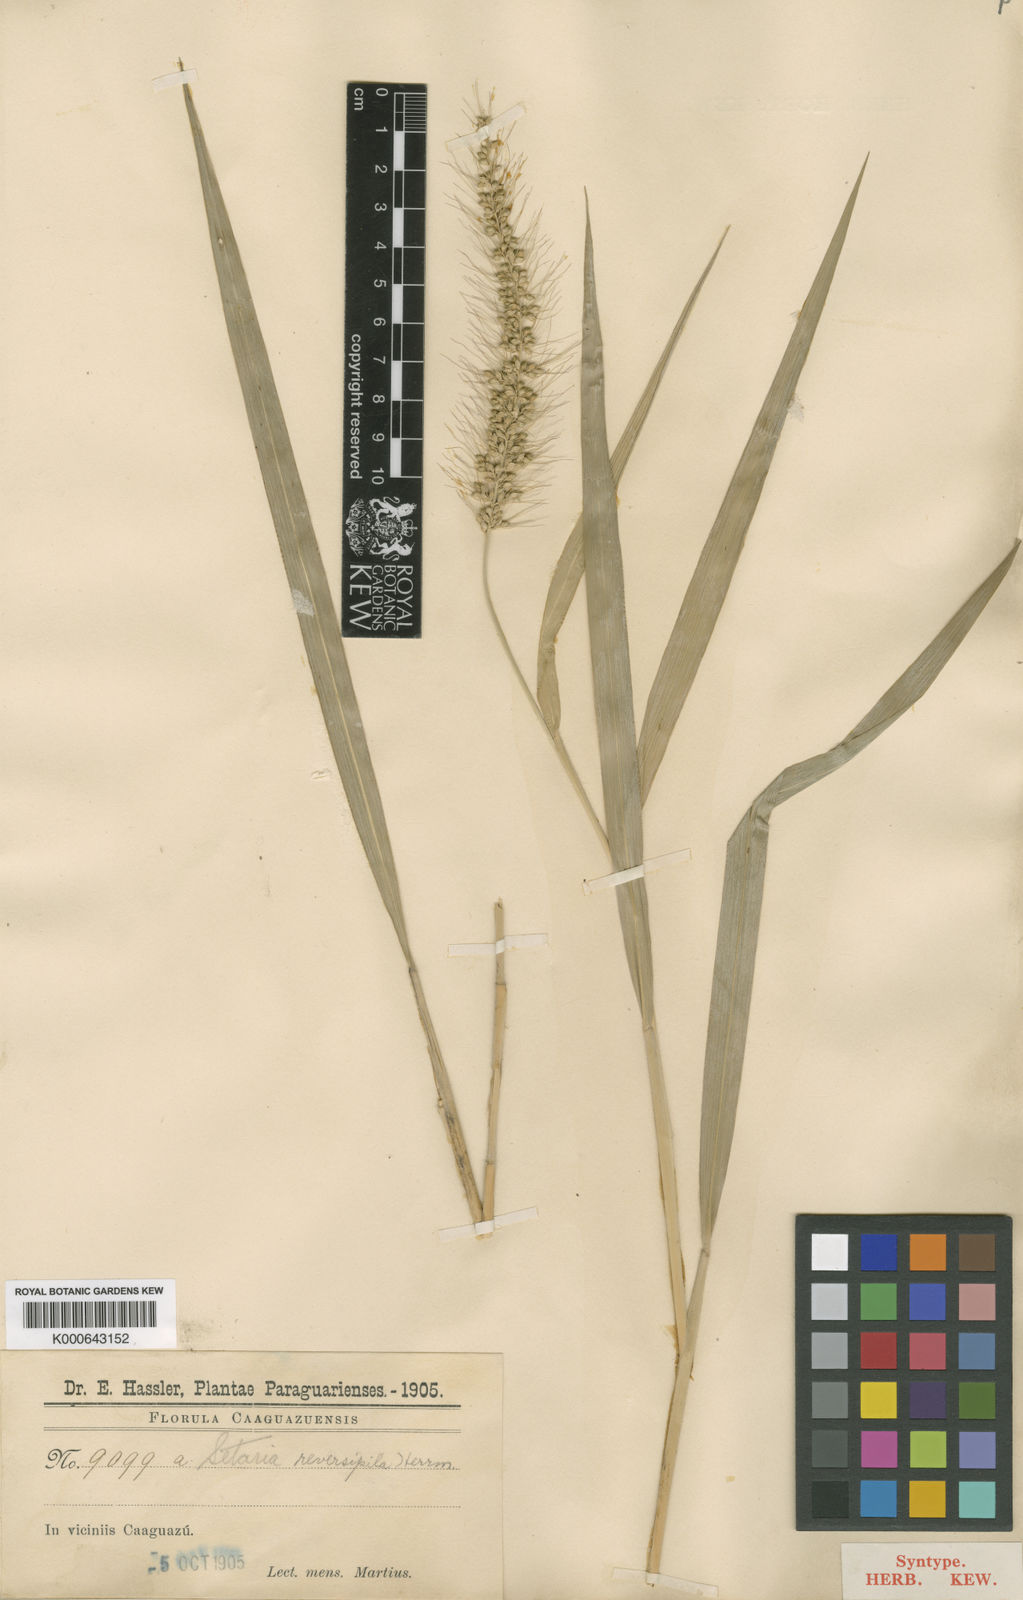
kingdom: Plantae
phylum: Tracheophyta
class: Liliopsida
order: Poales
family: Poaceae
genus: Setaria
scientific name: Setaria vulpiseta
